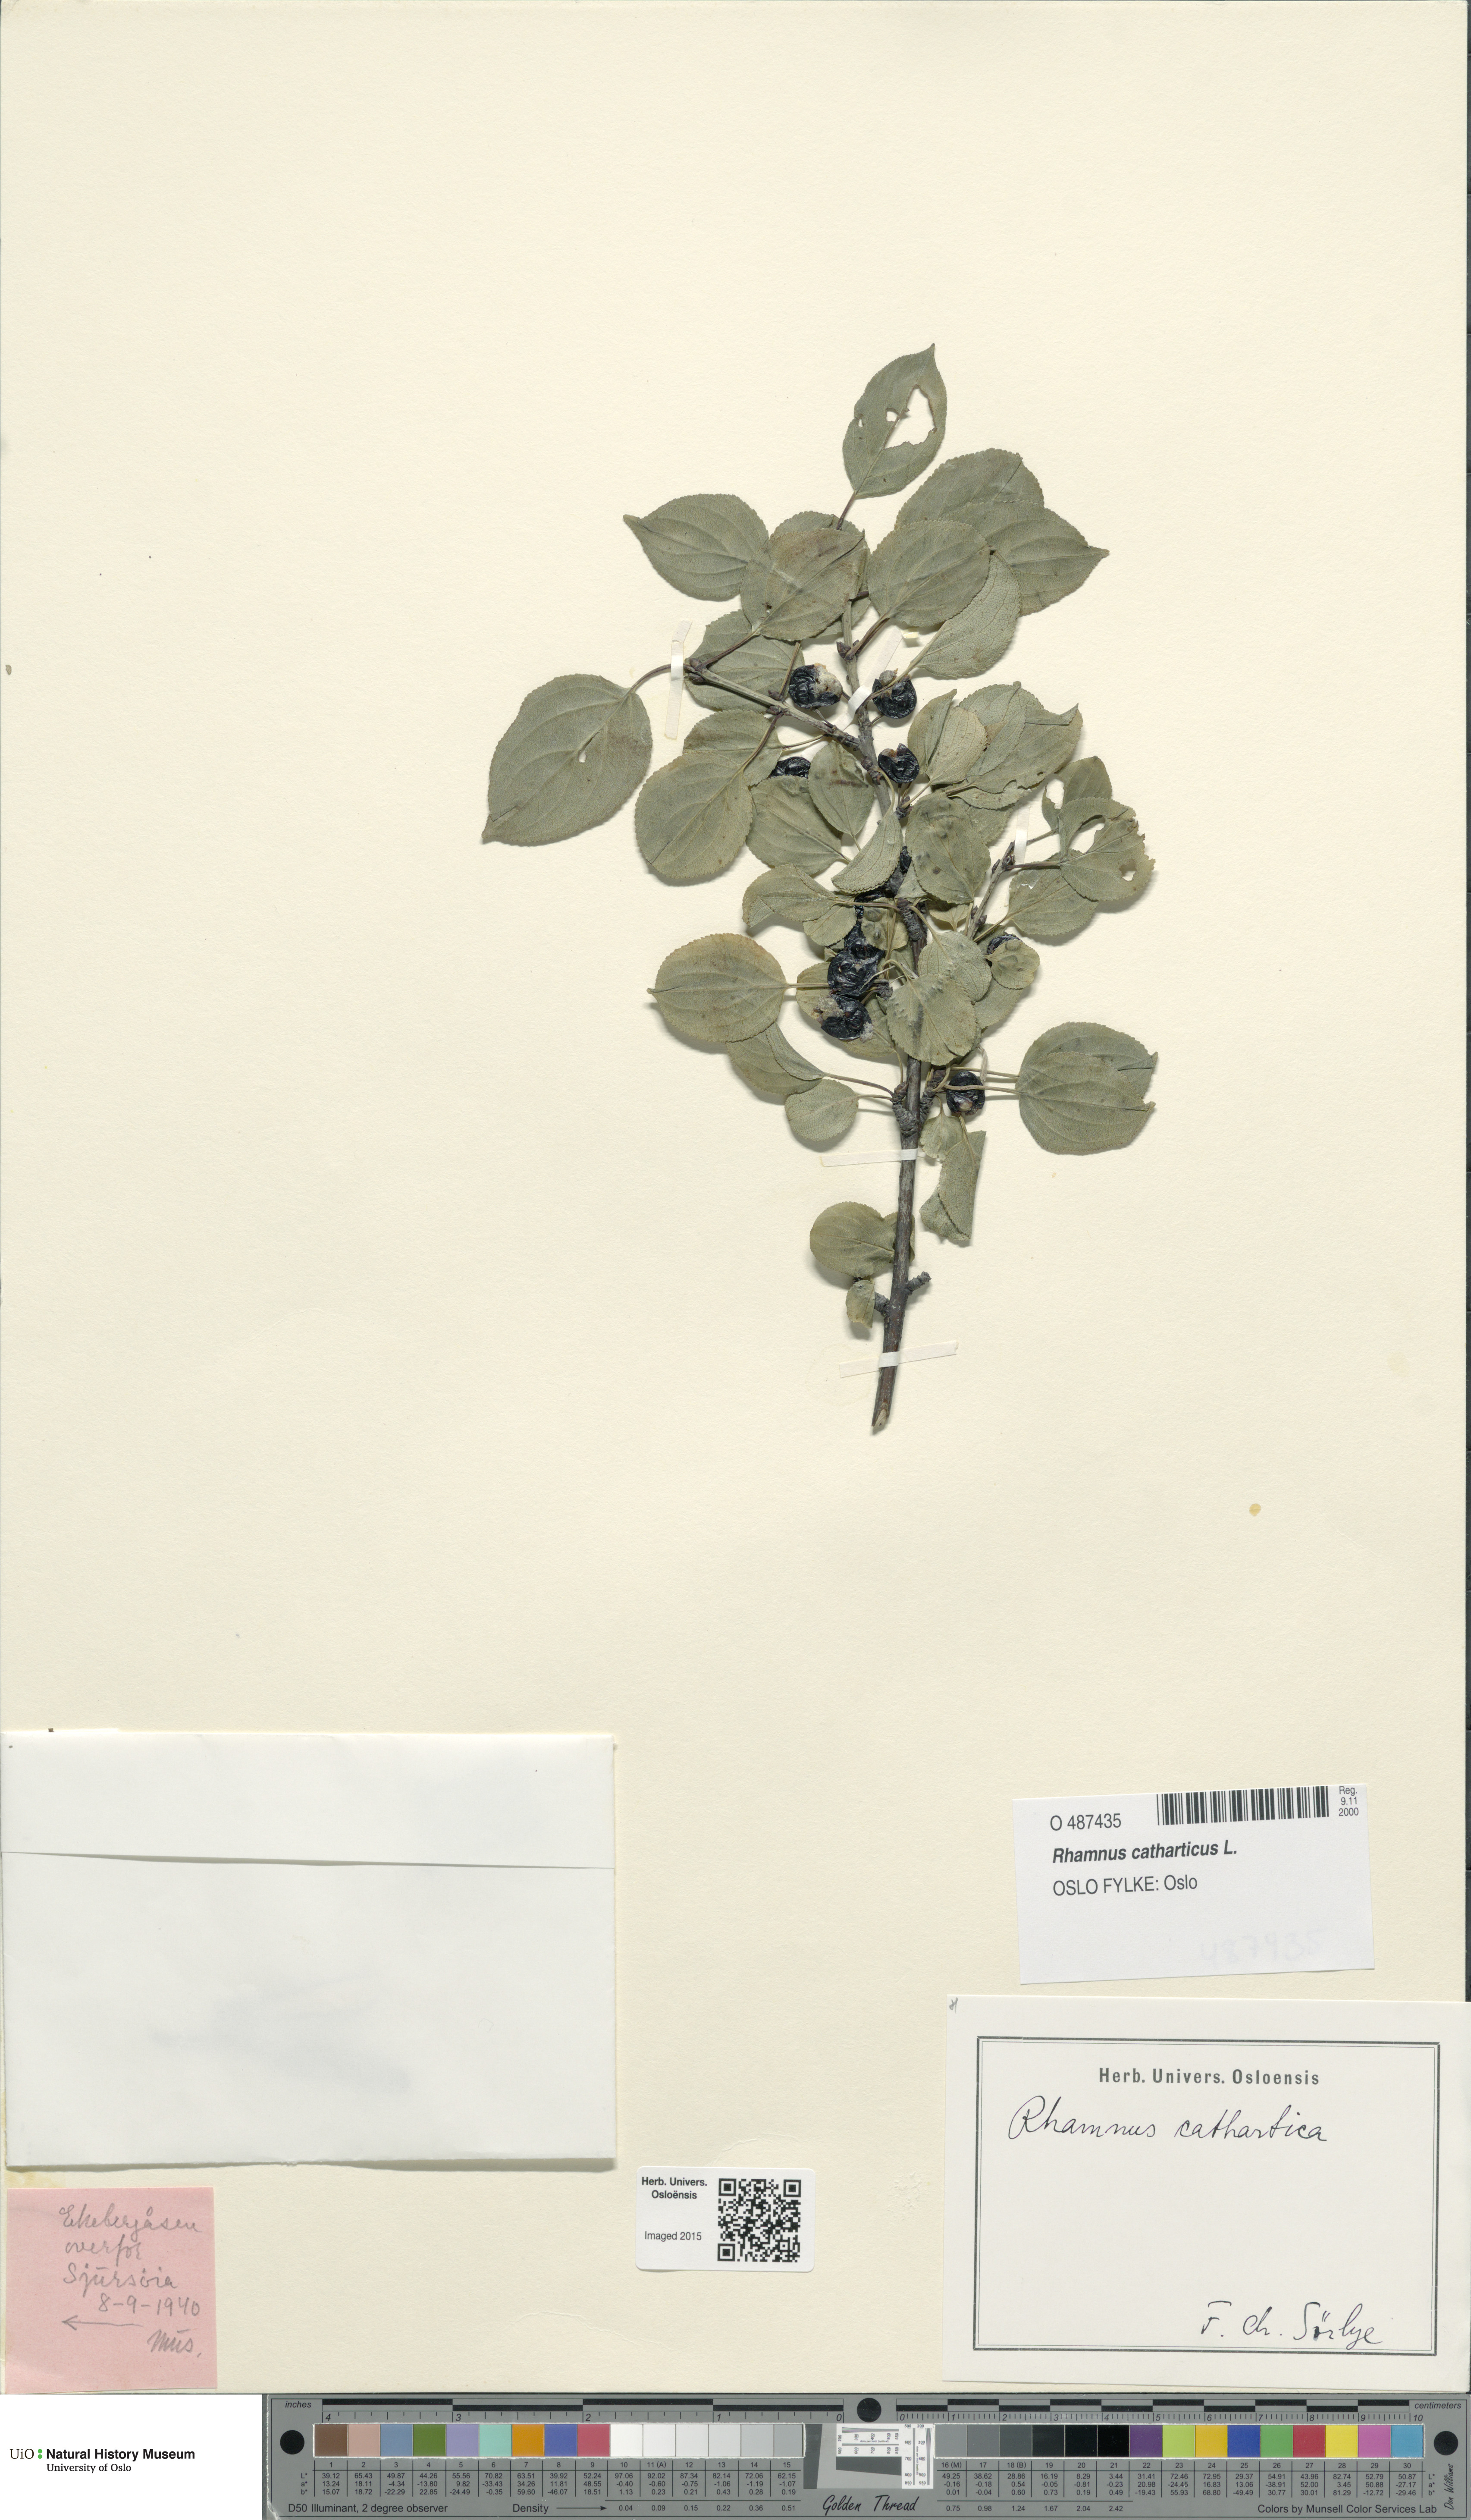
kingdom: Plantae
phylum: Tracheophyta
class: Magnoliopsida
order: Rosales
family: Rhamnaceae
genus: Rhamnus
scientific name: Rhamnus cathartica
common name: Common buckthorn
